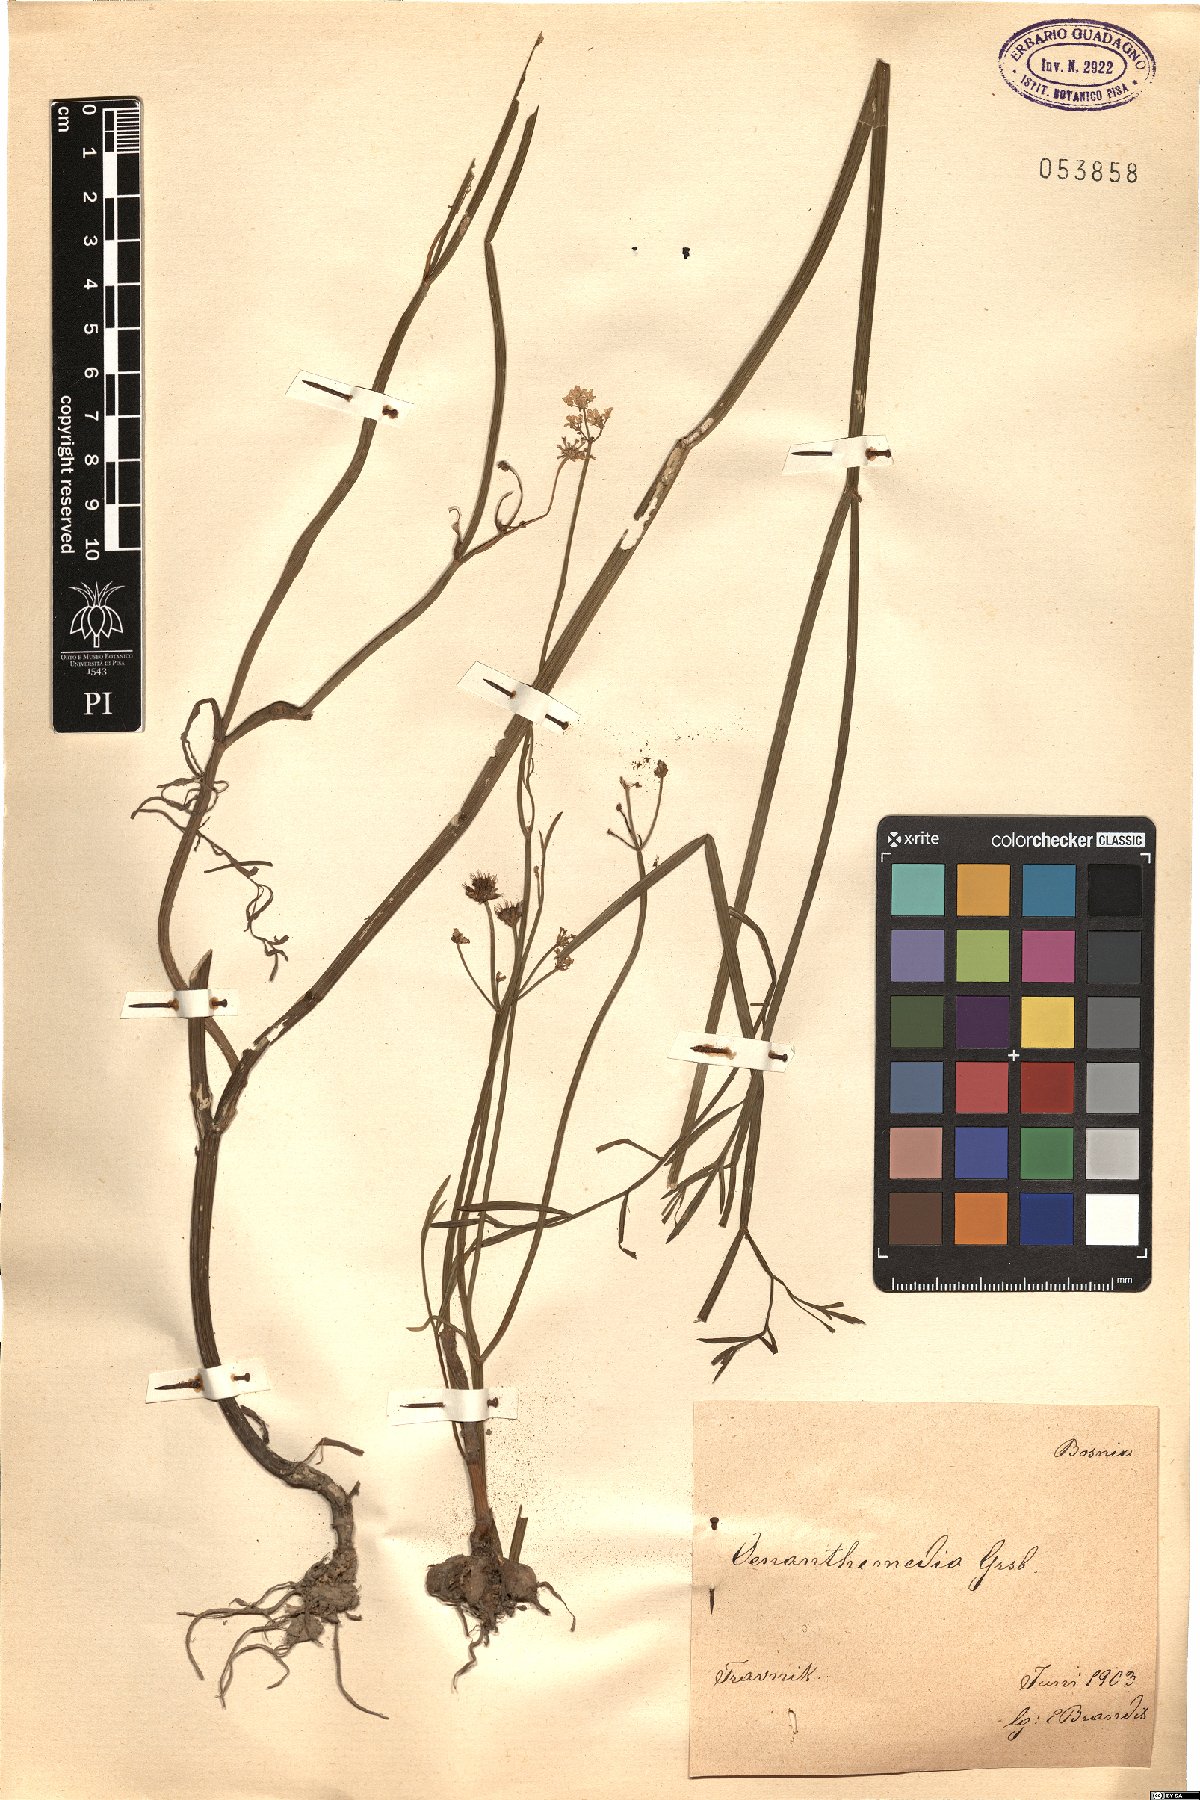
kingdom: Plantae
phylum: Tracheophyta
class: Magnoliopsida
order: Apiales
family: Apiaceae
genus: Oenanthe
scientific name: Oenanthe silaifolia
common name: Narrow-leaved water-dropwort
